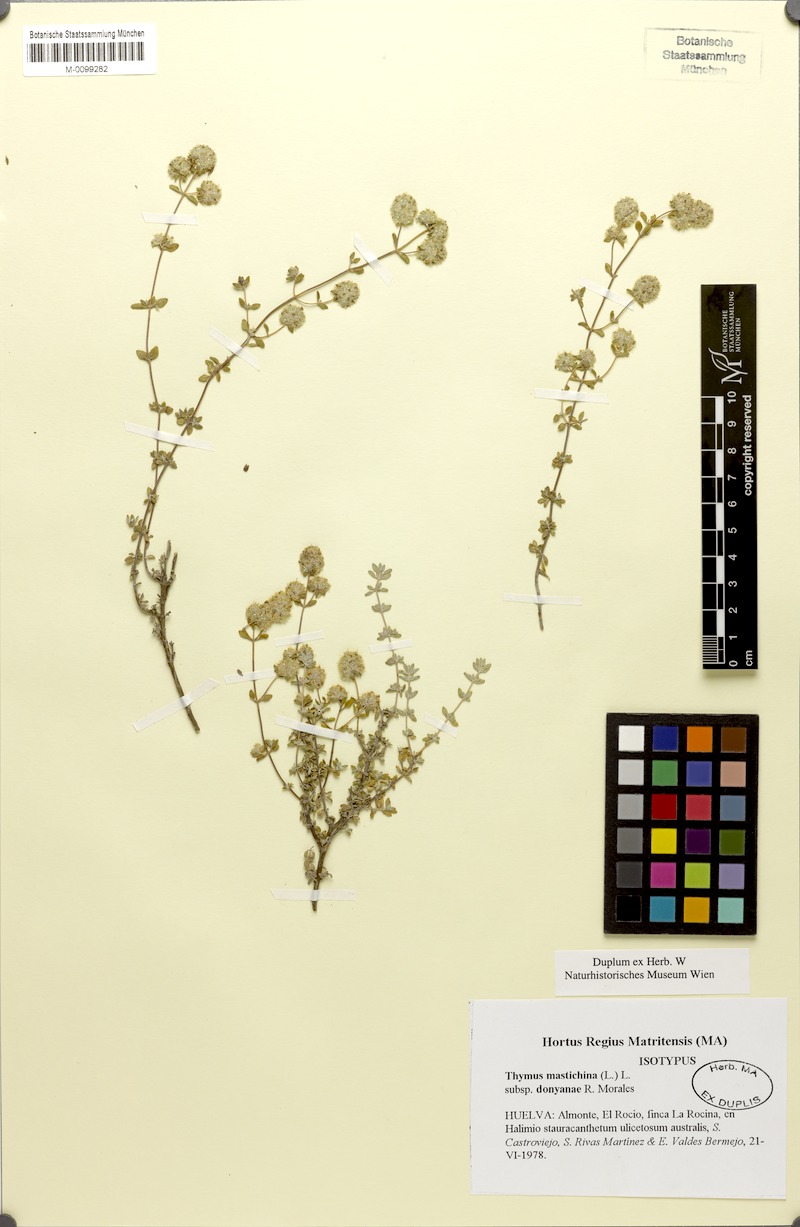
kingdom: Plantae
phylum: Tracheophyta
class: Magnoliopsida
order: Lamiales
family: Lamiaceae
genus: Thymus
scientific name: Thymus mastichina
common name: Mastic thyme
